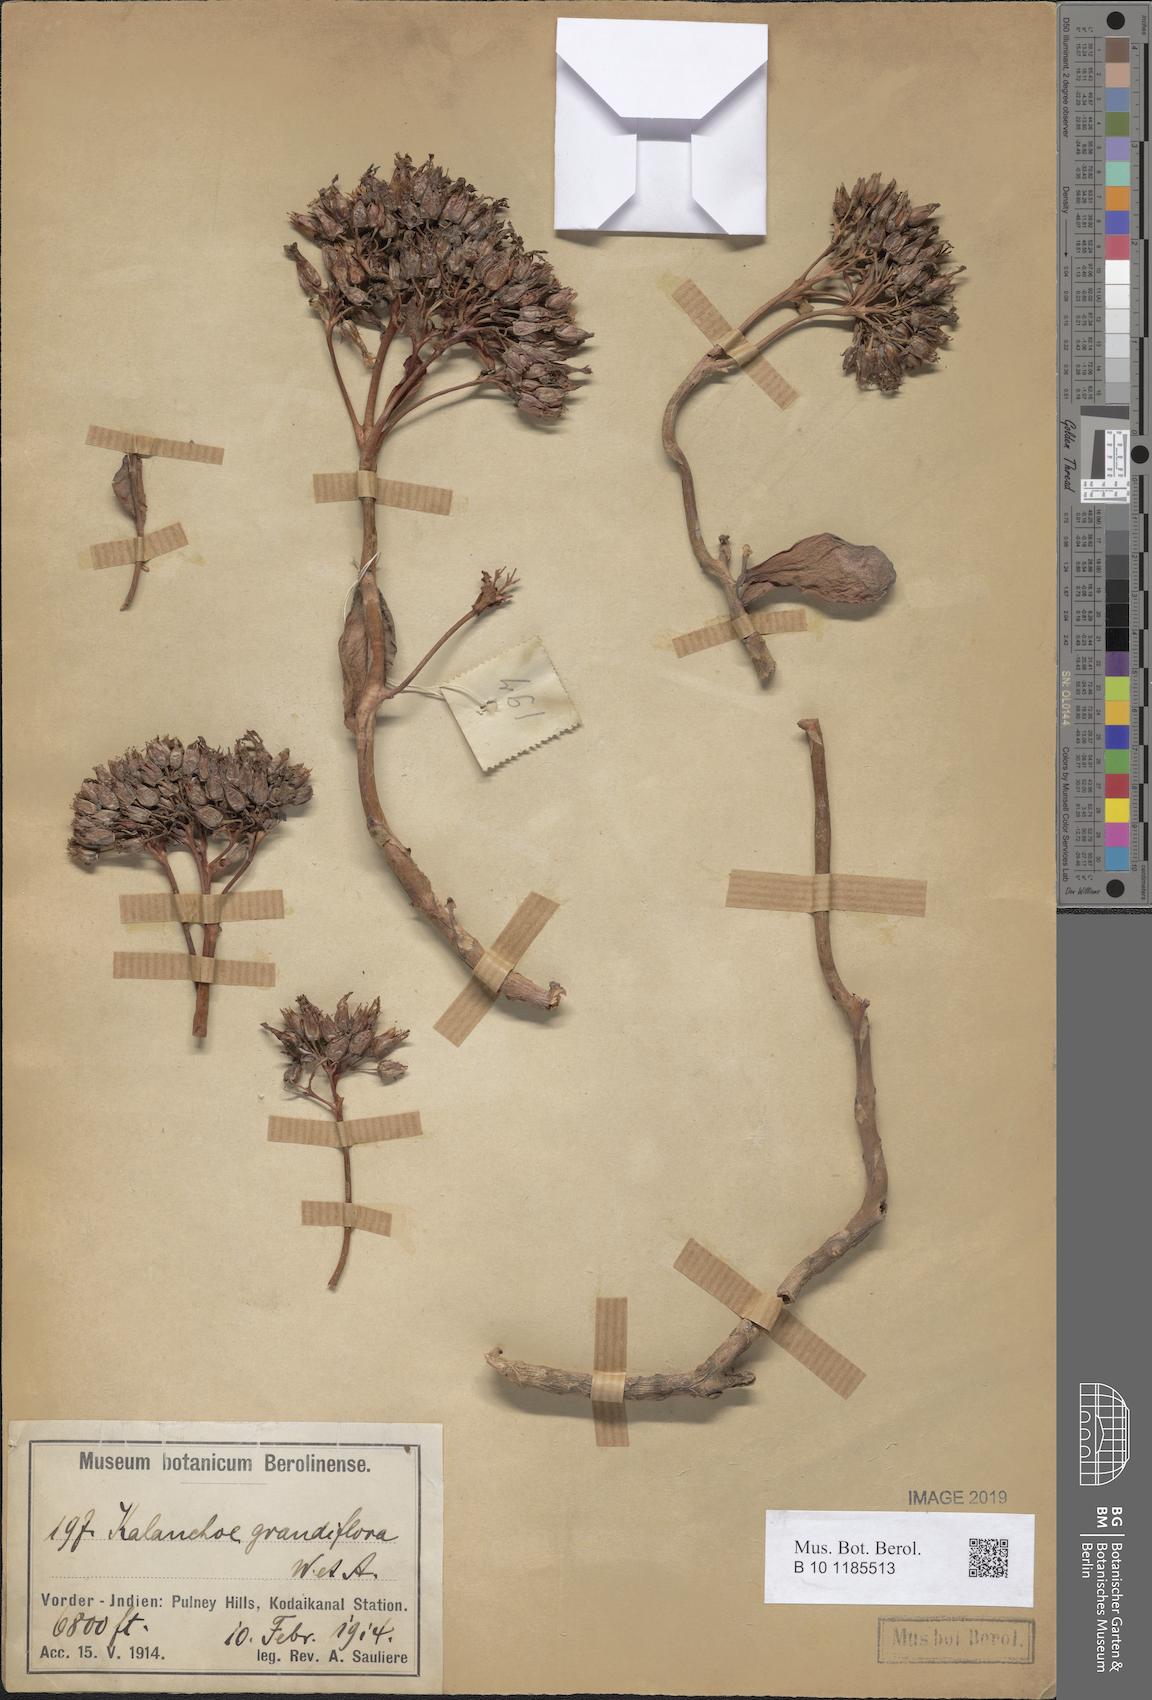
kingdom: Plantae
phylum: Tracheophyta
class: Magnoliopsida
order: Saxifragales
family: Crassulaceae
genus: Kalanchoe
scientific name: Kalanchoe grandiflora
